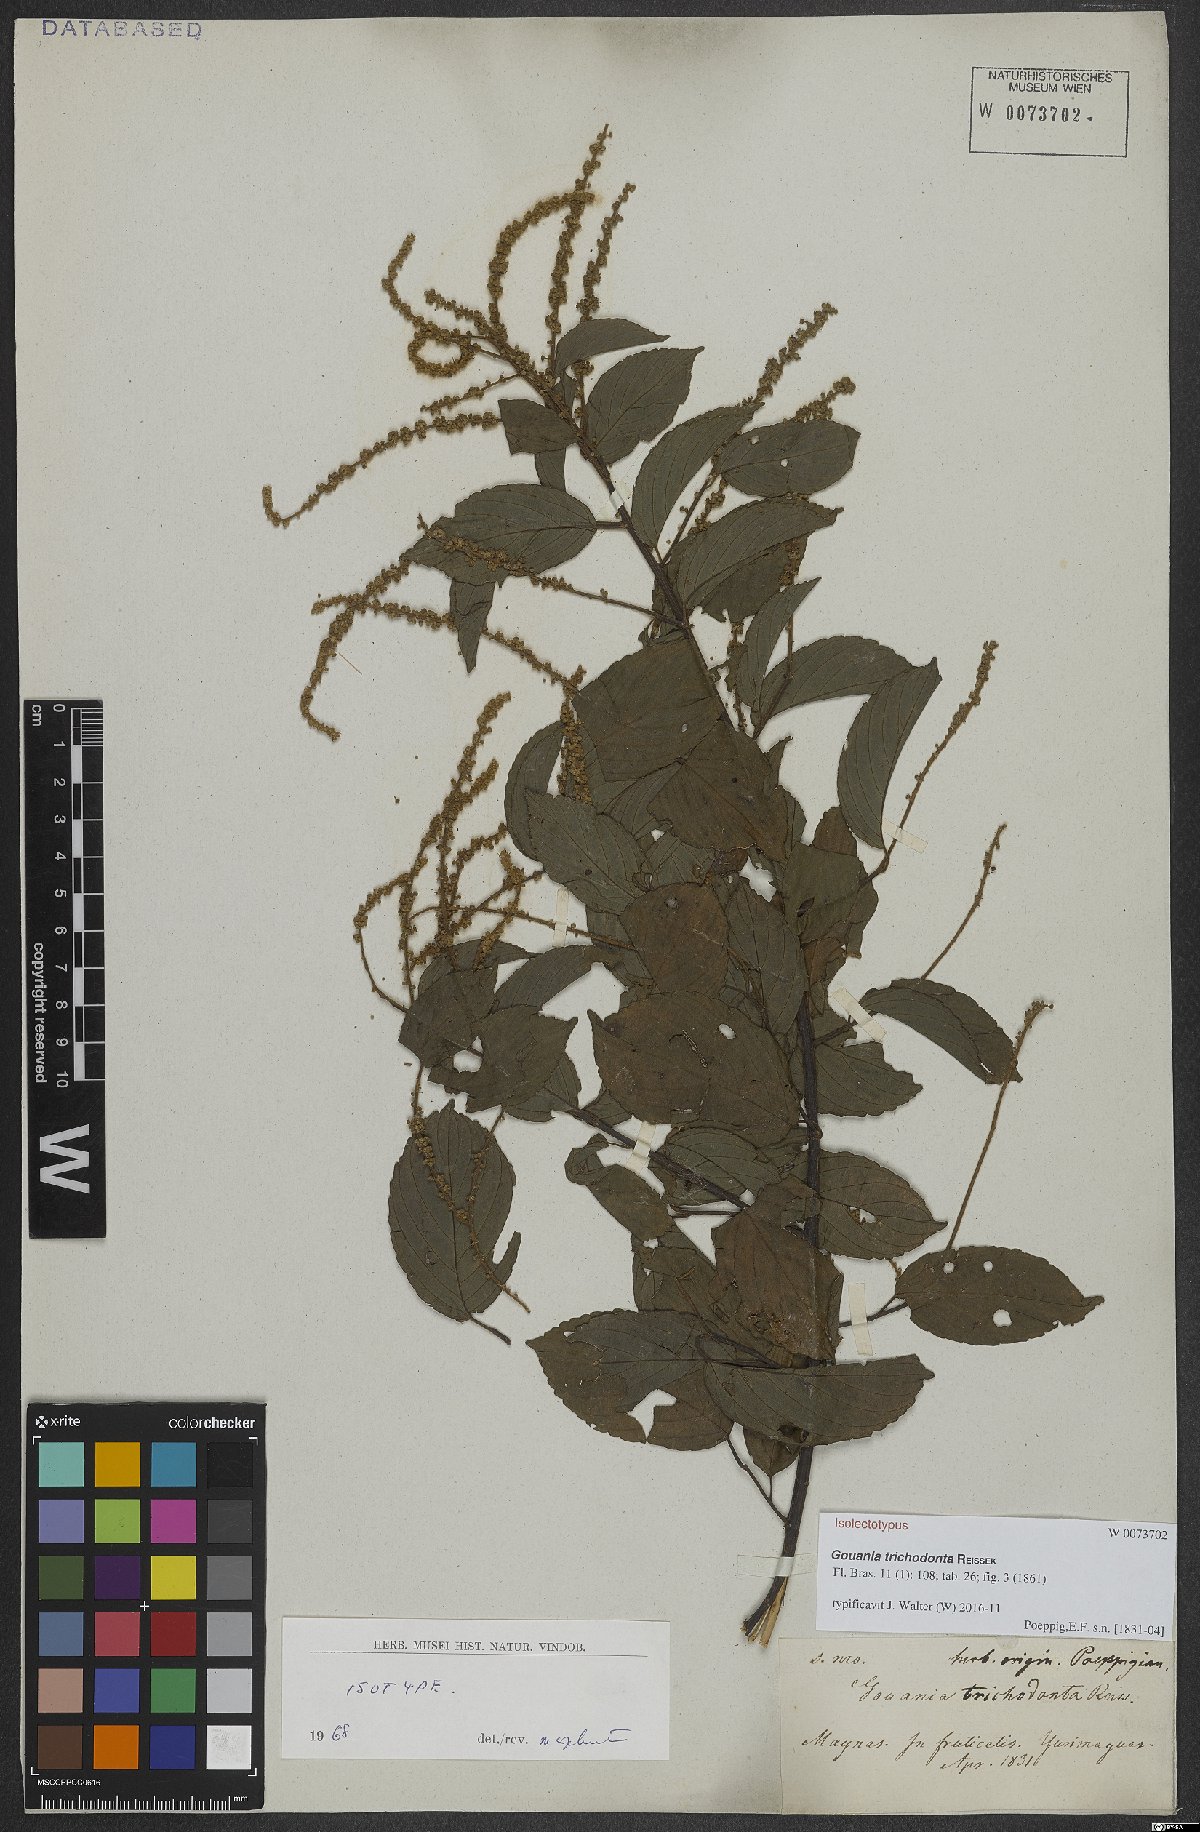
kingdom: Plantae
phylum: Tracheophyta
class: Magnoliopsida
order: Rosales
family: Rhamnaceae
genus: Gouania
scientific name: Gouania trichodonta
